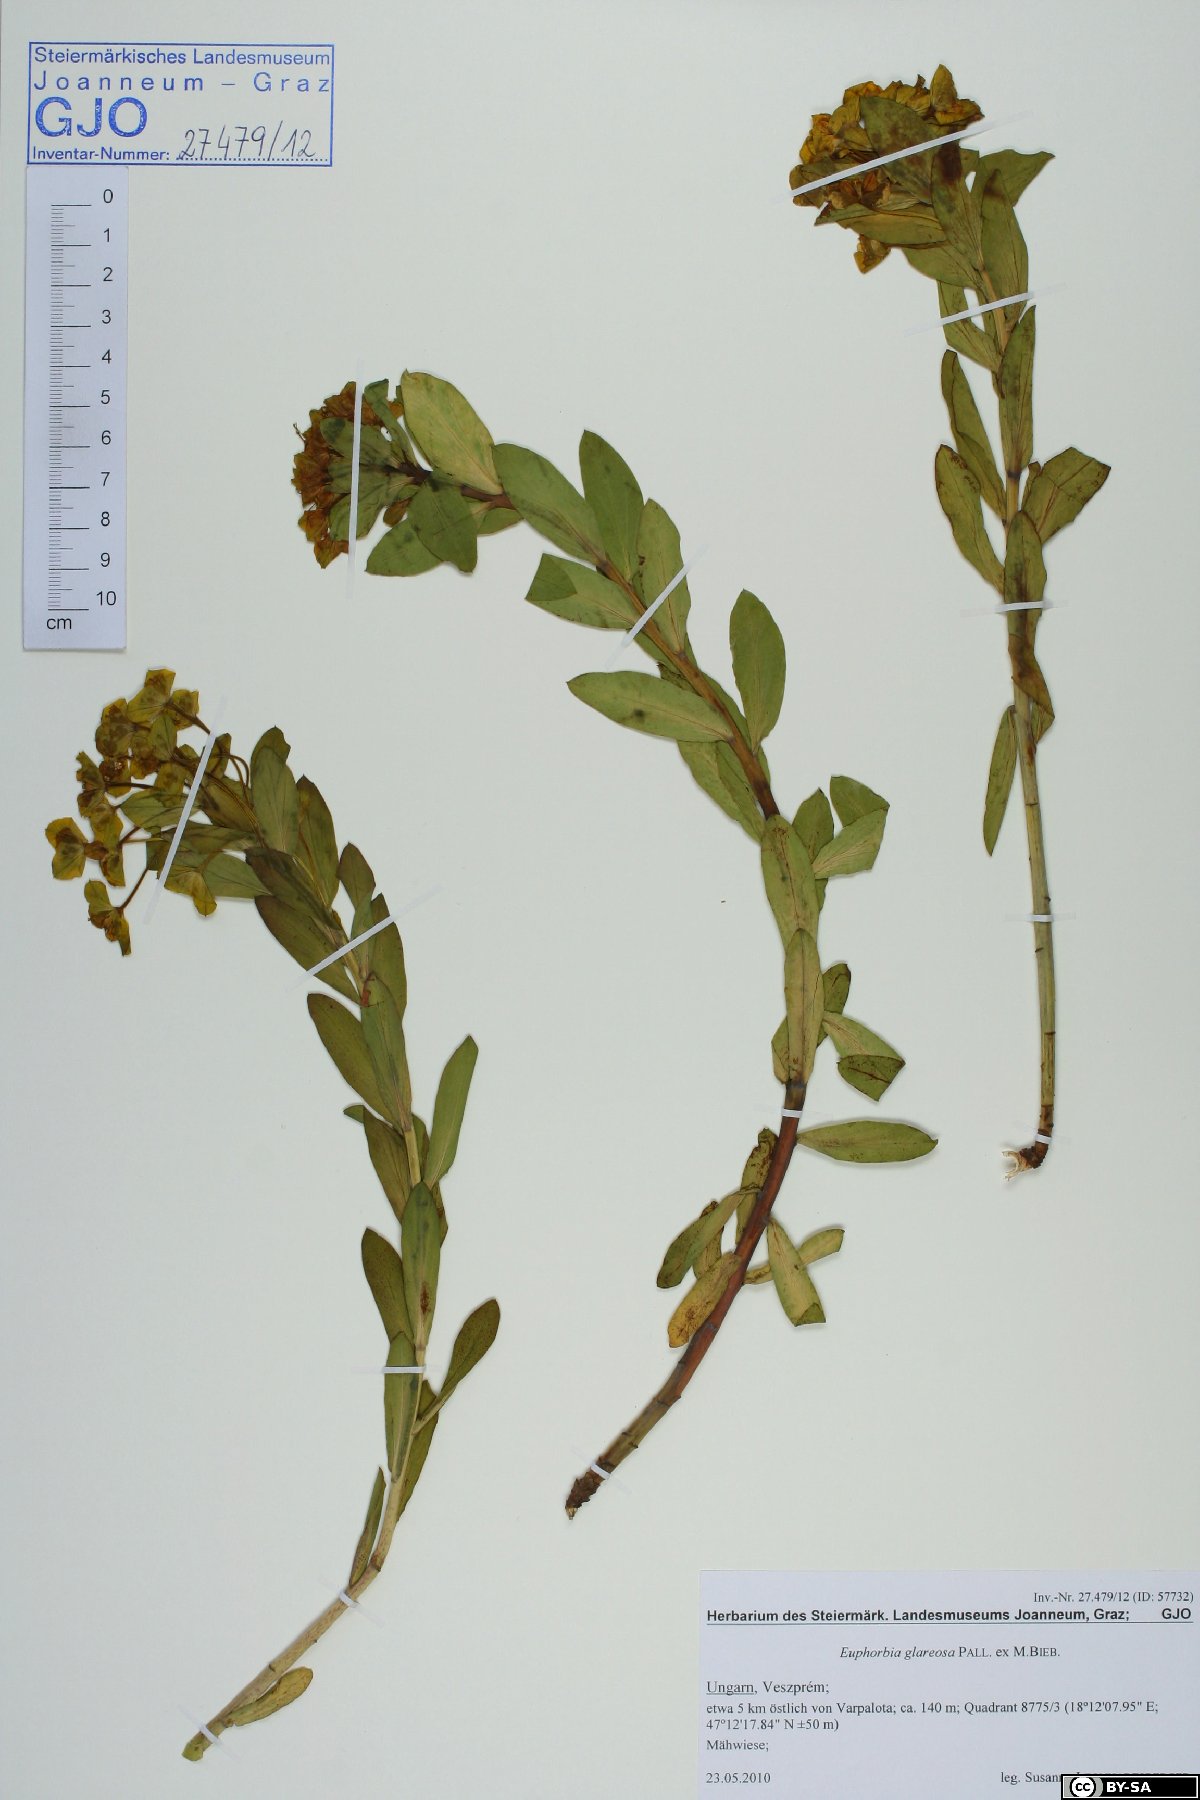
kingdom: Plantae
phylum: Tracheophyta
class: Magnoliopsida
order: Malpighiales
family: Euphorbiaceae
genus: Euphorbia
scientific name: Euphorbia glareosa
